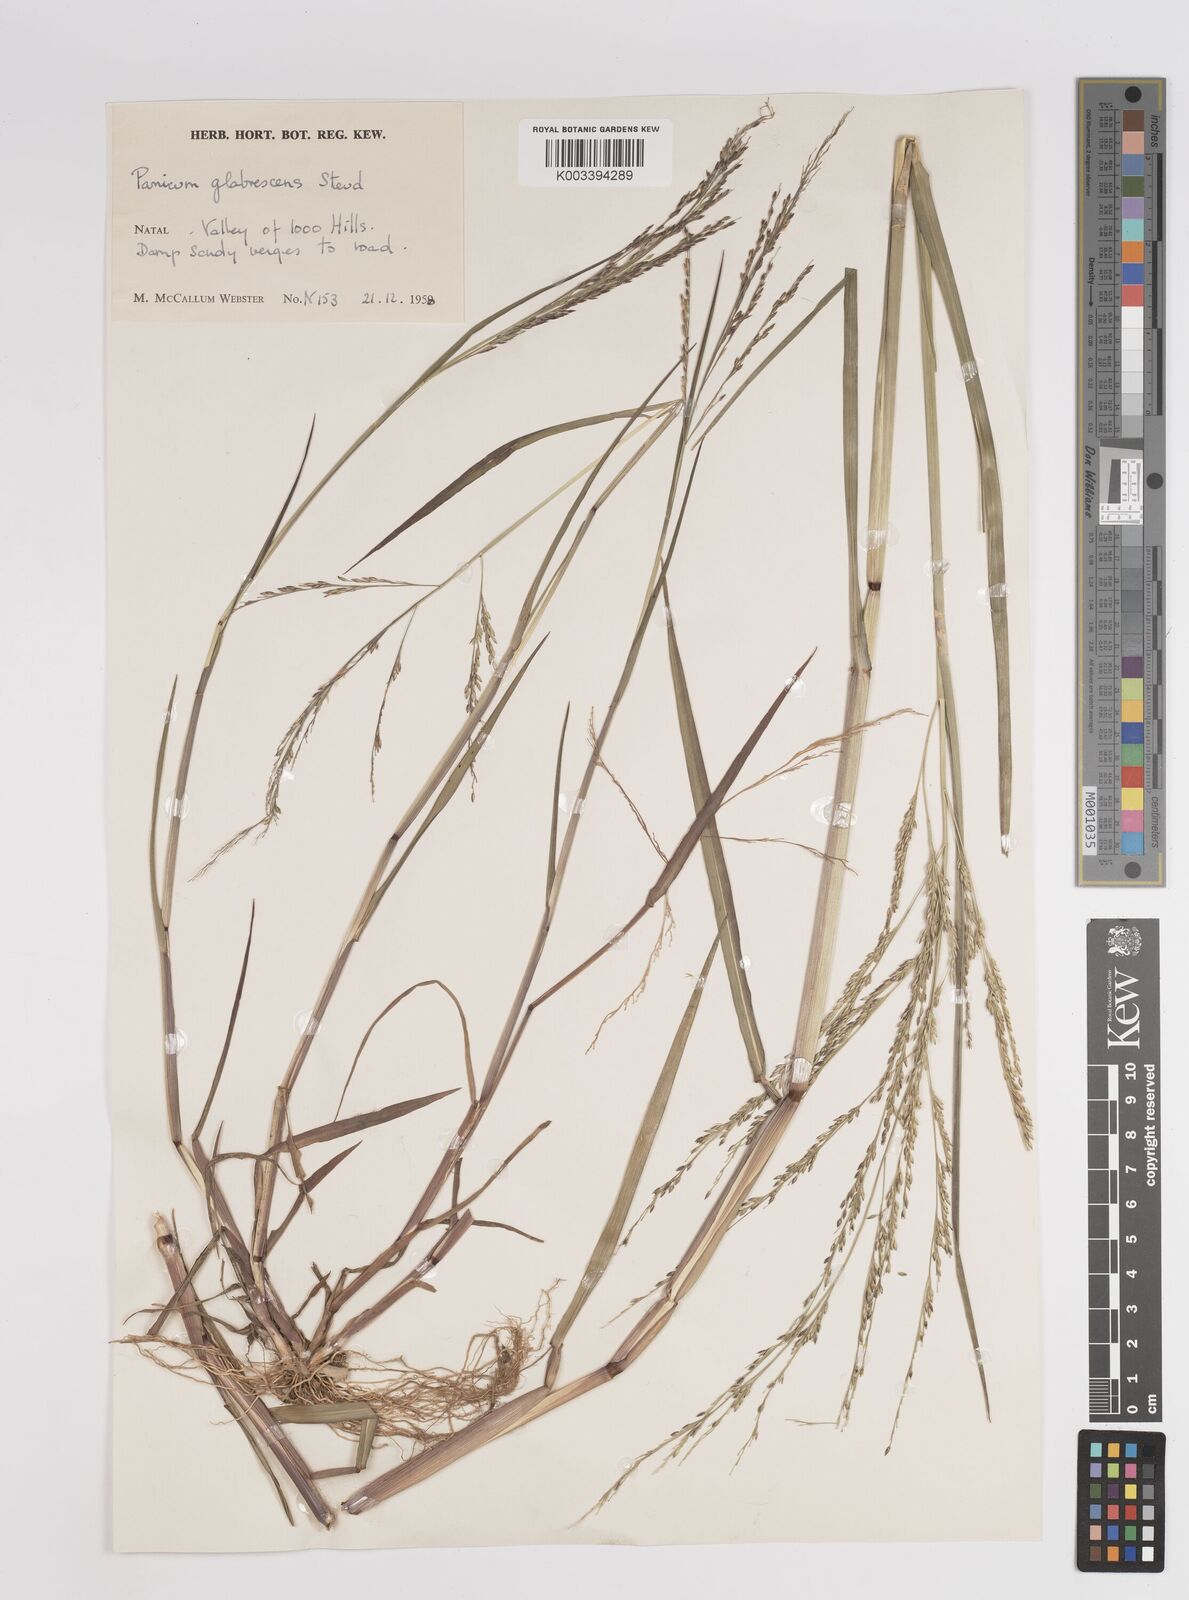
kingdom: Plantae
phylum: Tracheophyta
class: Liliopsida
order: Poales
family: Poaceae
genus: Panicum
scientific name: Panicum subalbidum
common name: Elbow buffalo grass
